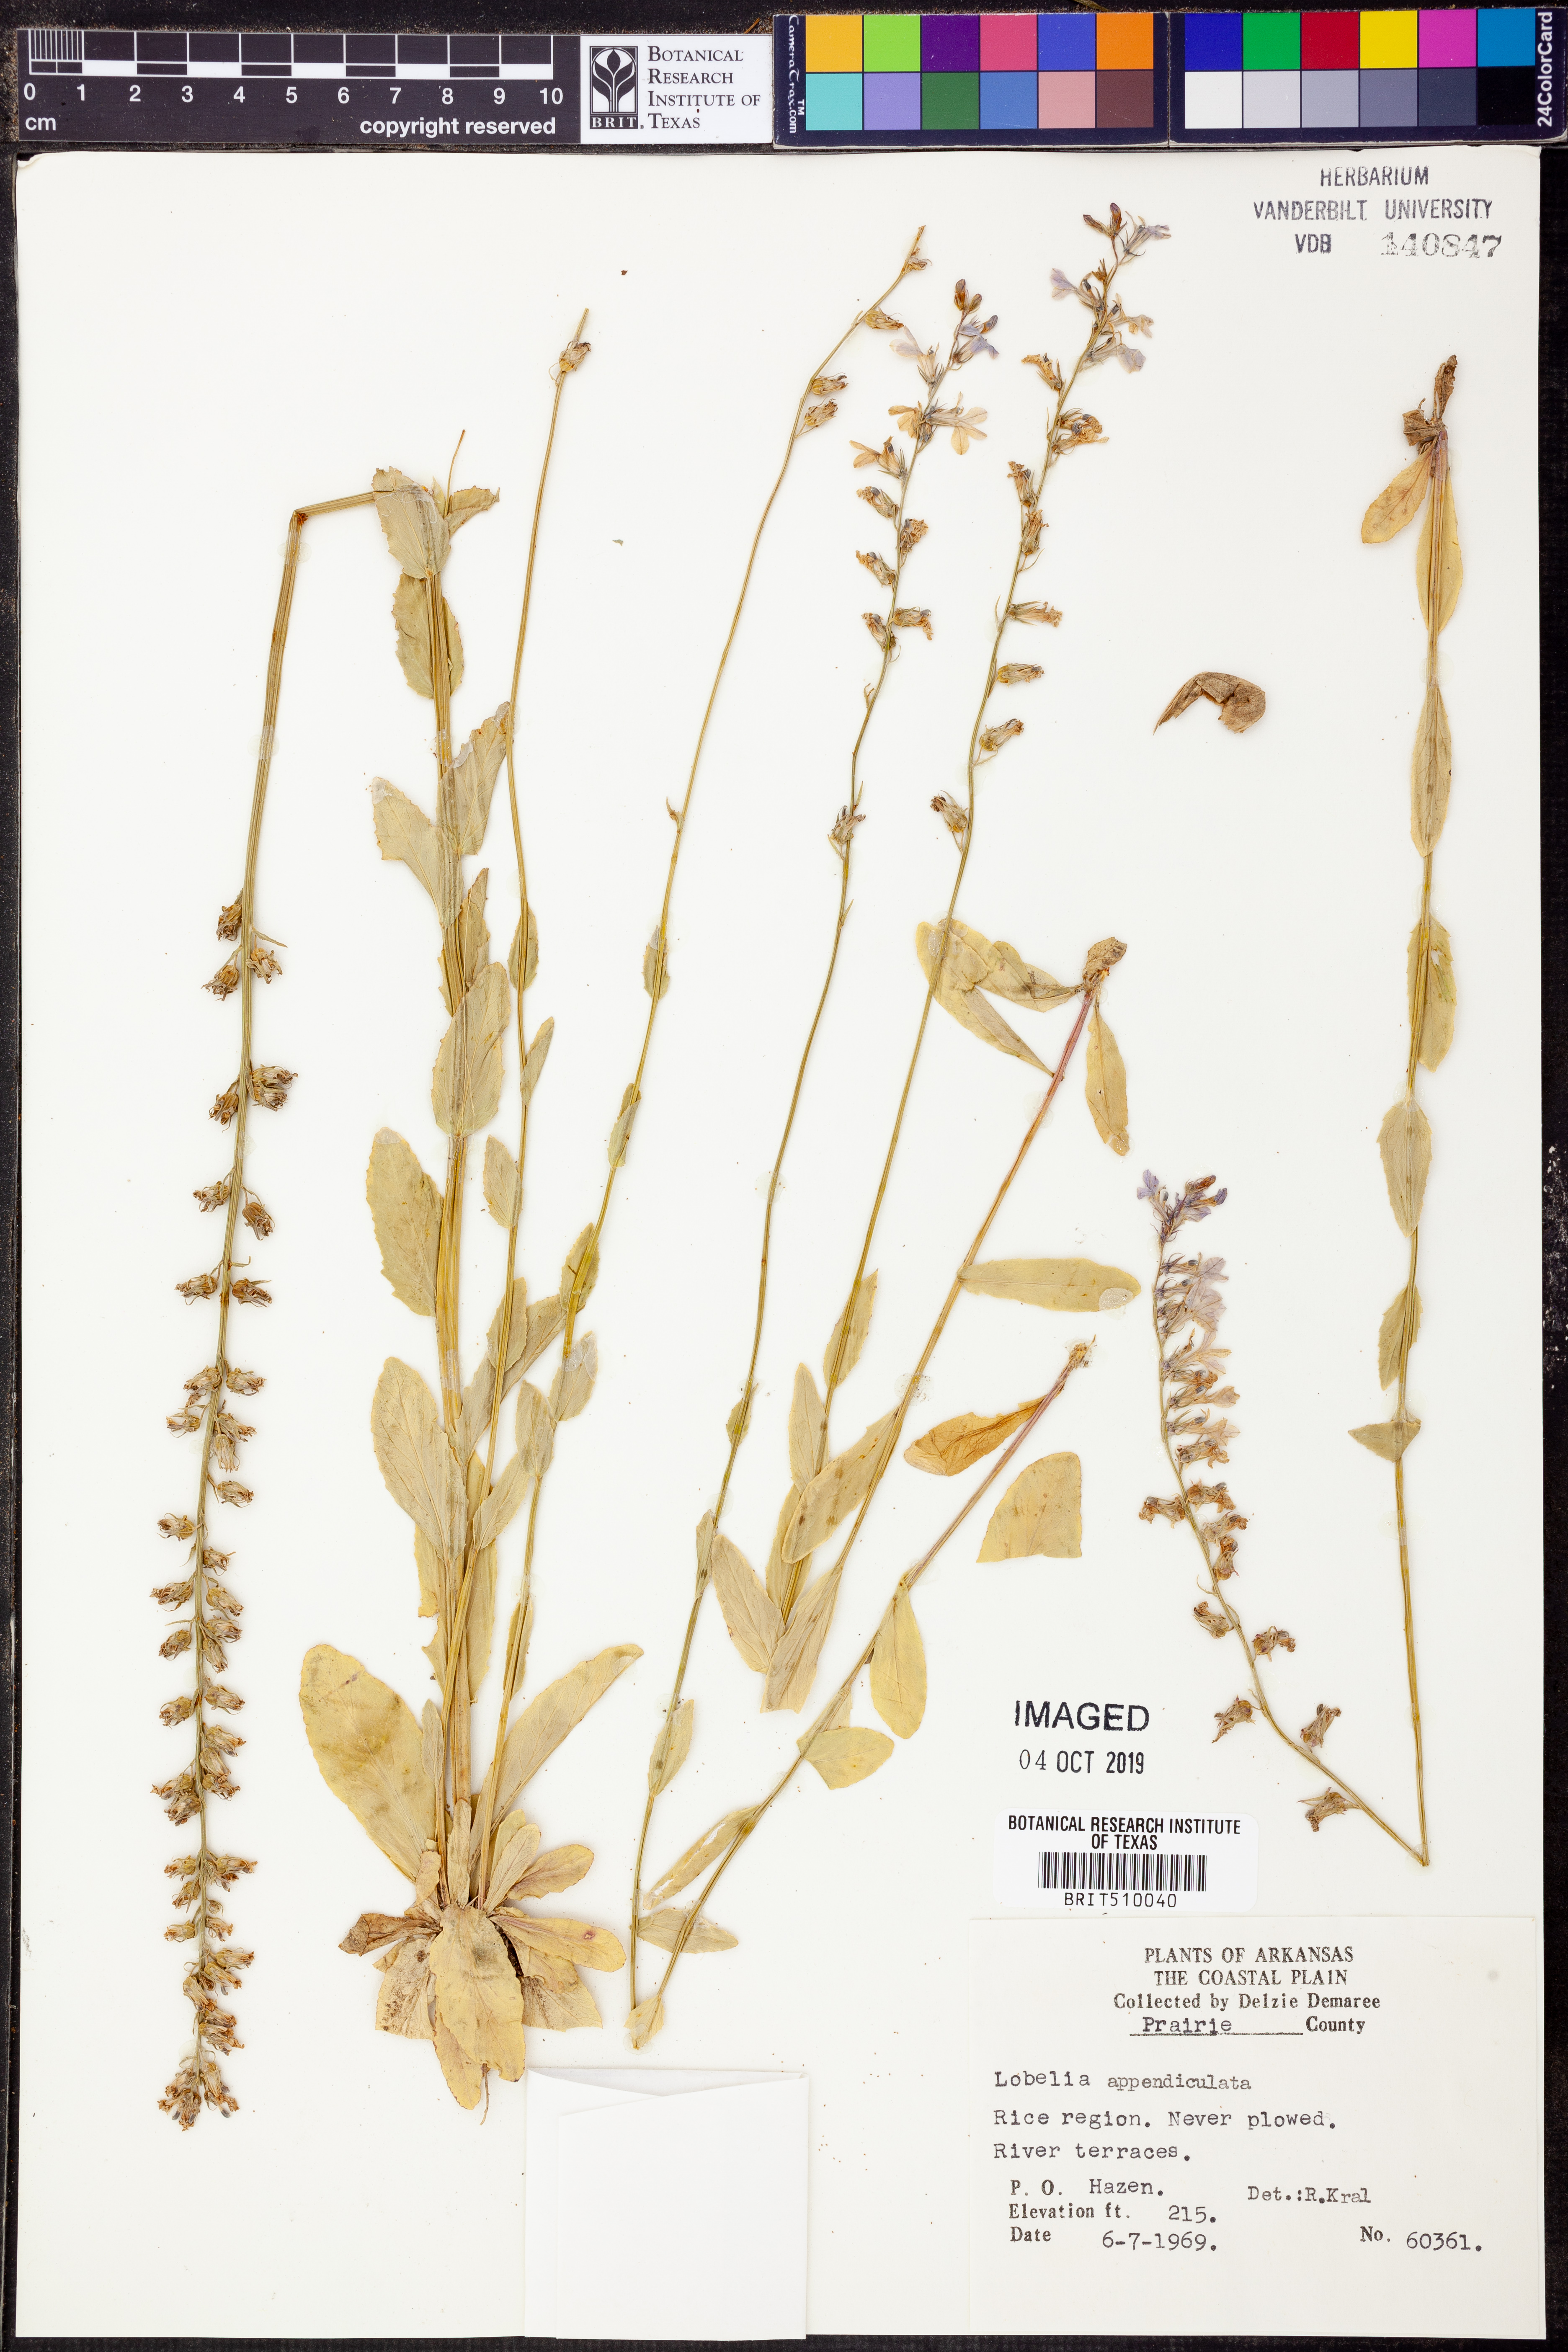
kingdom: Plantae
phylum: Tracheophyta
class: Magnoliopsida
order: Asterales
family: Campanulaceae
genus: Lobelia
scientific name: Lobelia appendiculata
